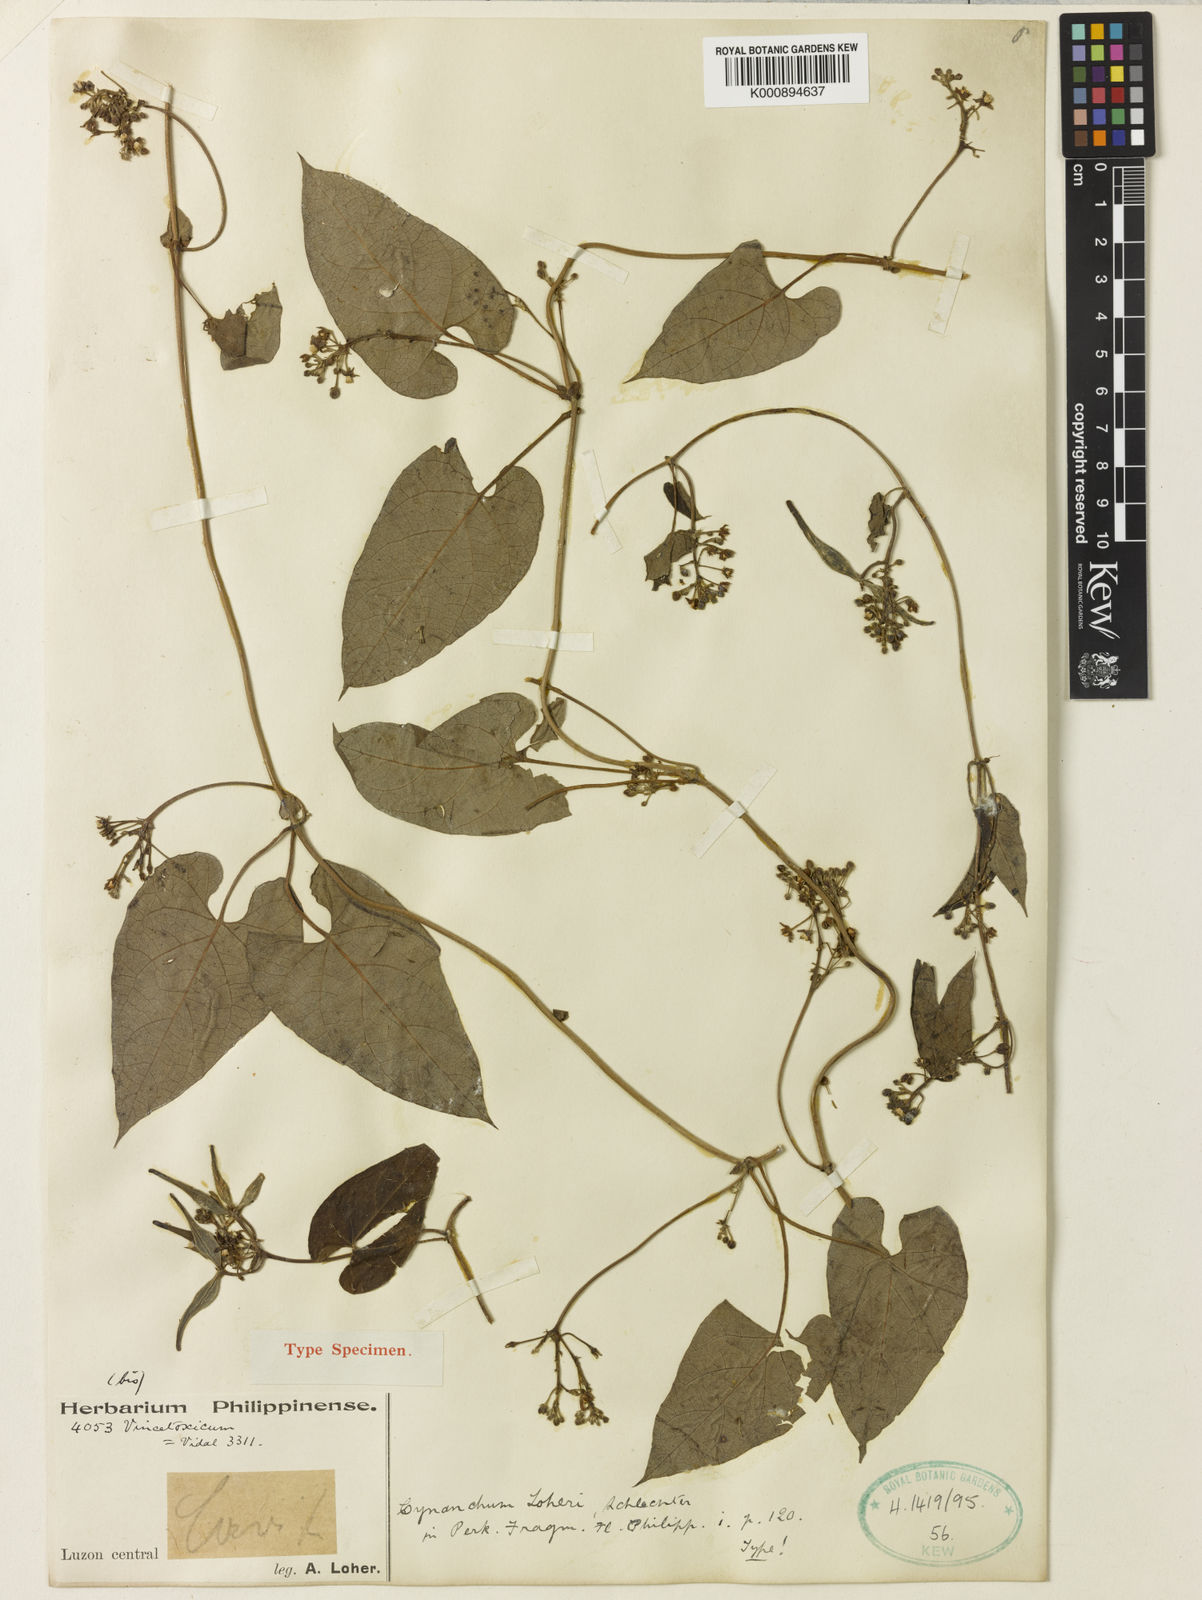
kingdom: Plantae
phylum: Tracheophyta
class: Magnoliopsida
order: Gentianales
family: Apocynaceae
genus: Cynanchum
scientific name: Cynanchum loheri
